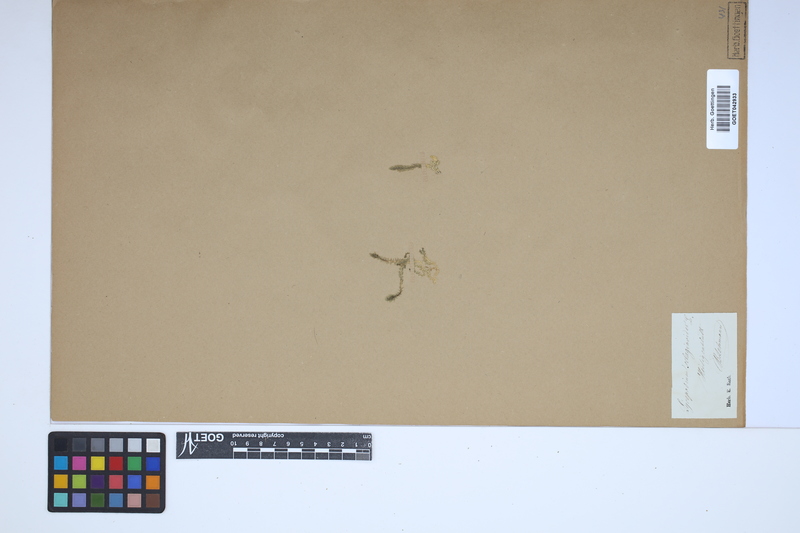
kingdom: Plantae
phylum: Tracheophyta
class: Lycopodiopsida
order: Selaginellales
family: Selaginellaceae
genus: Selaginella
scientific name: Selaginella selaginoides
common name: Prickly mountain-moss
